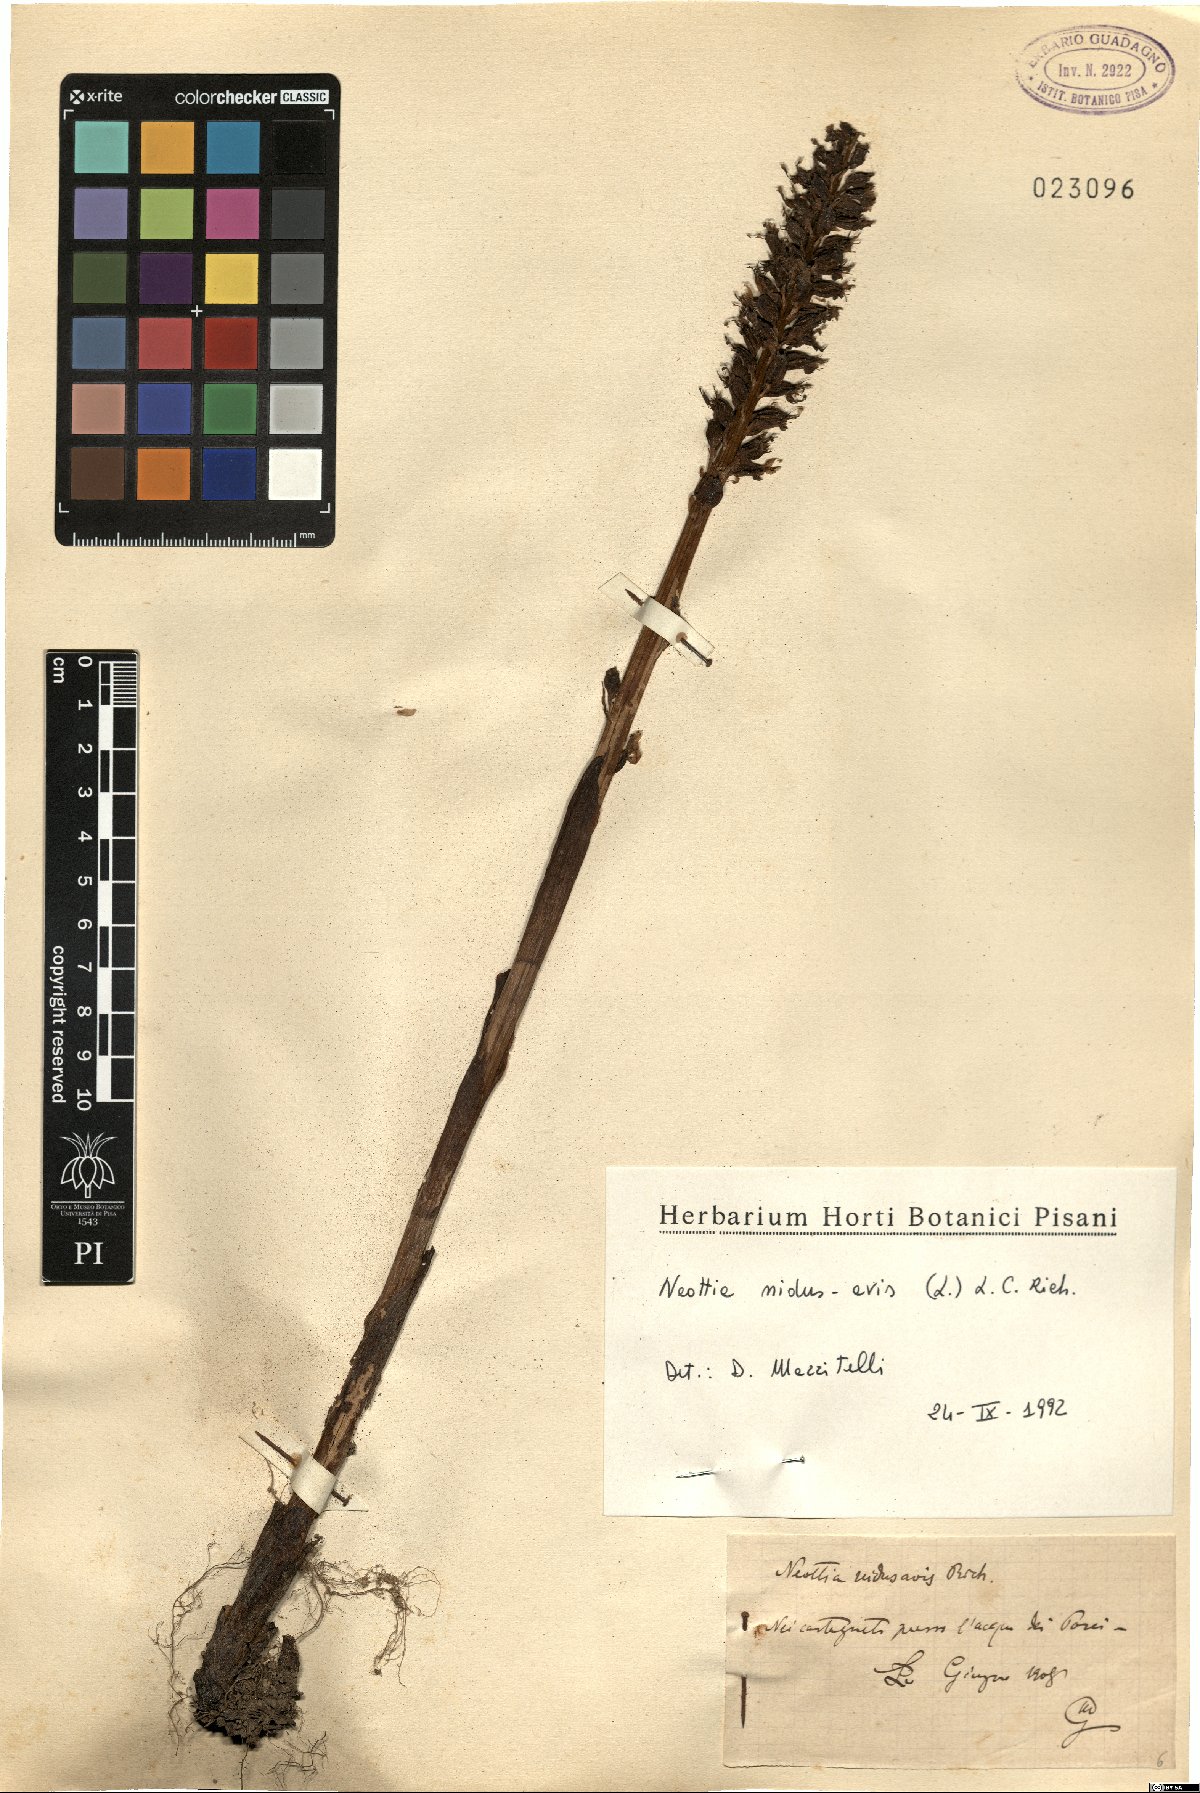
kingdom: Plantae
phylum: Tracheophyta
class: Liliopsida
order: Asparagales
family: Orchidaceae
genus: Neottia
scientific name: Neottia nidus-avis
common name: Bird's-nest orchid
